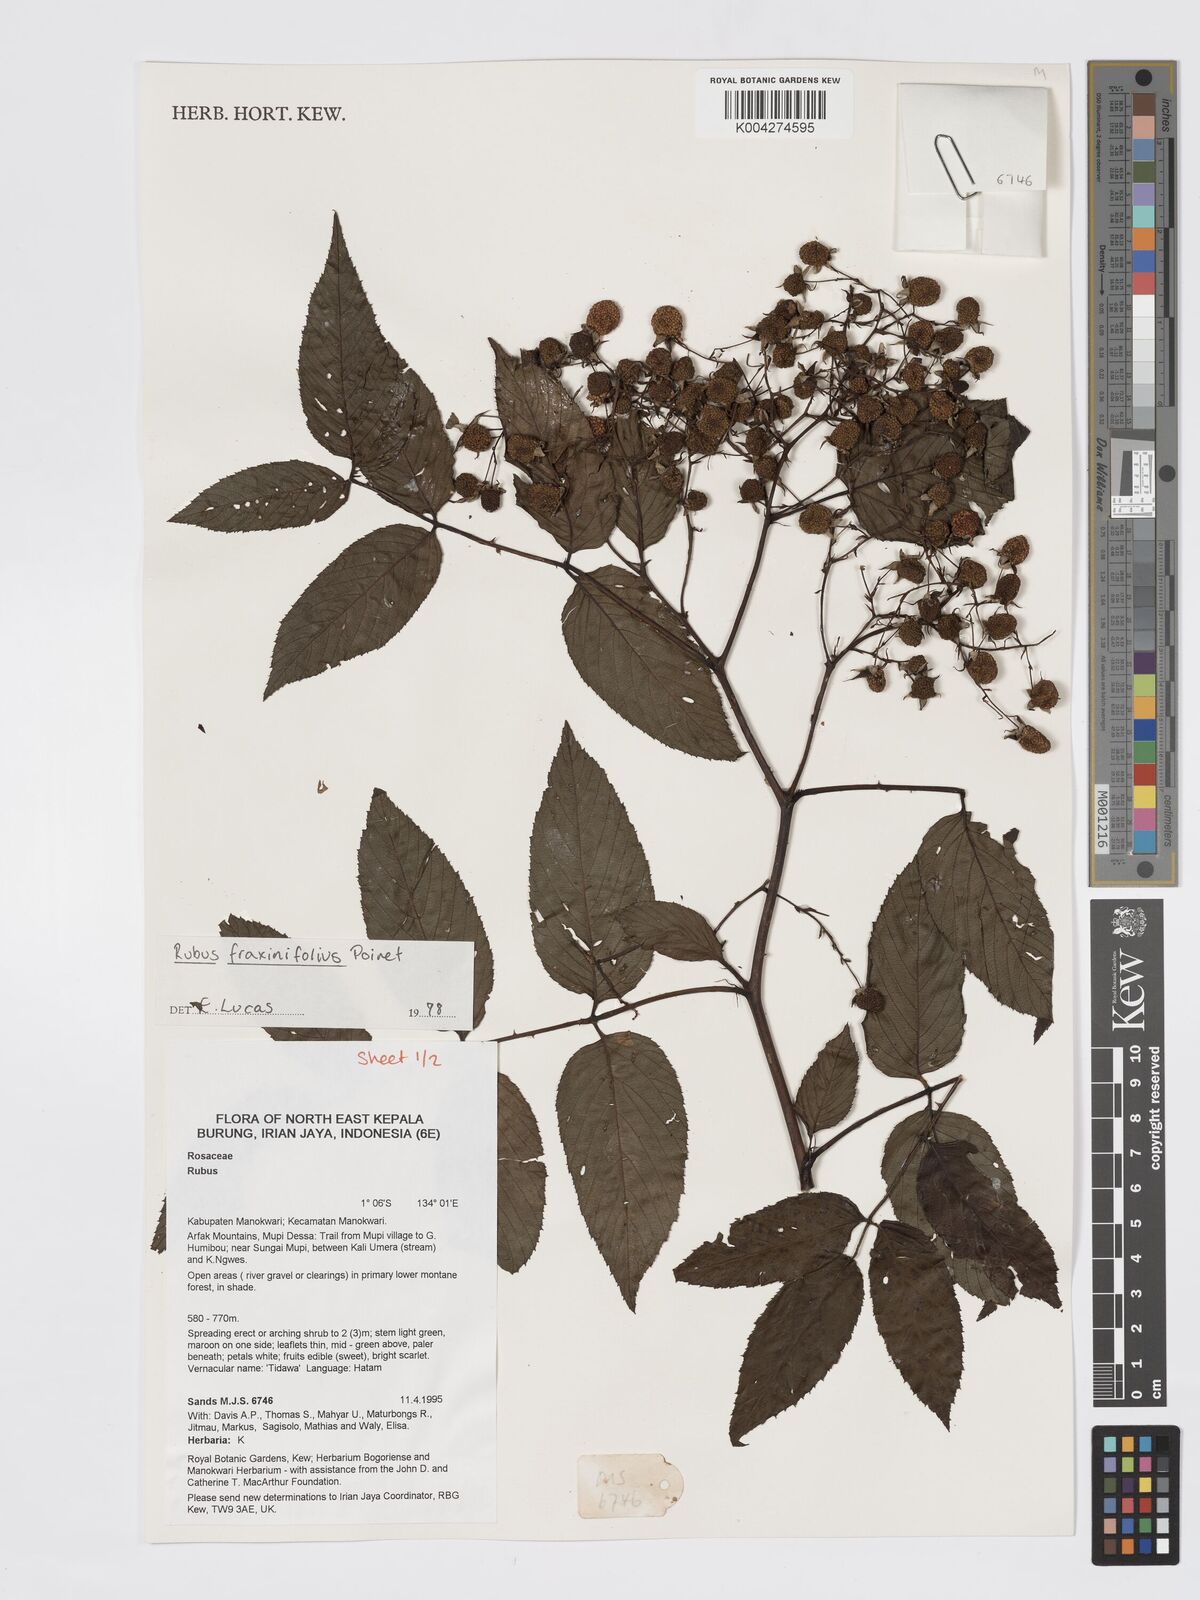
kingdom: Plantae
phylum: Tracheophyta
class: Magnoliopsida
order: Rosales
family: Rosaceae
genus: Rubus
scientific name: Rubus fraxinifolius
